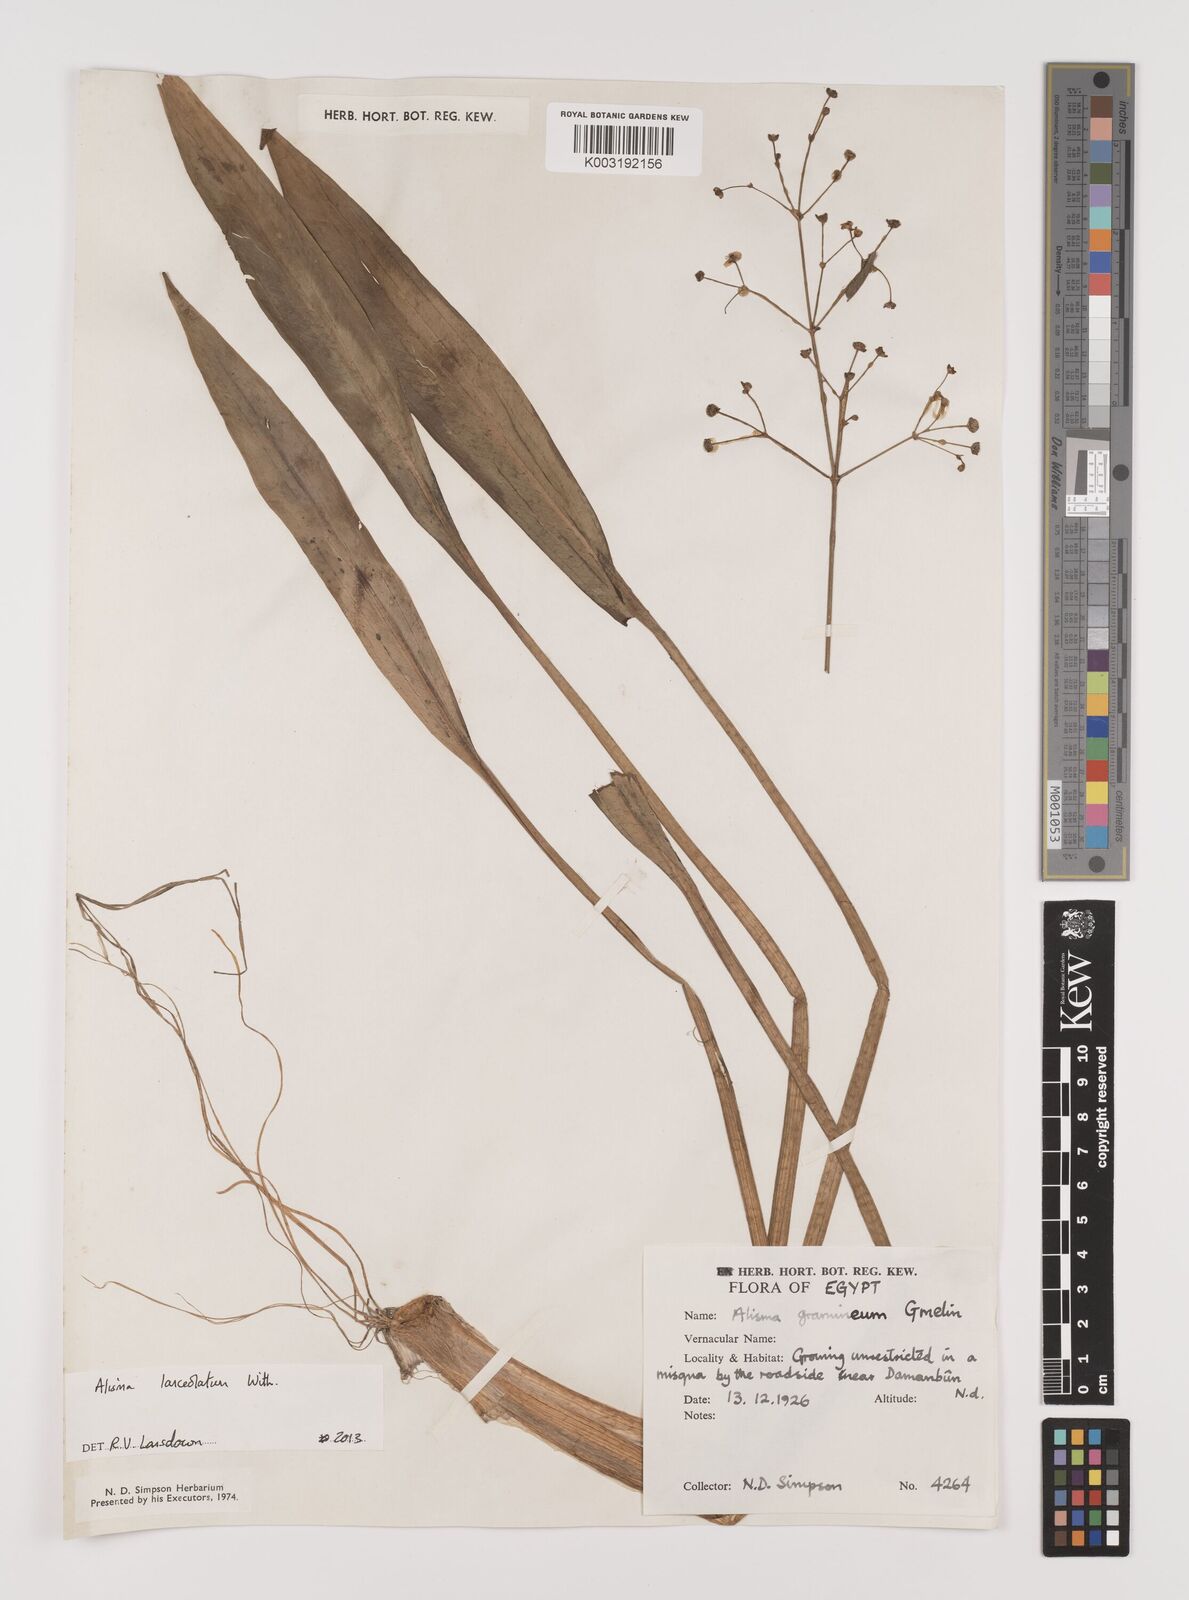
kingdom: Plantae
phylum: Tracheophyta
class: Liliopsida
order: Alismatales
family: Alismataceae
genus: Alisma
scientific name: Alisma lanceolatum
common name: Narrow-leaved water-plantain
